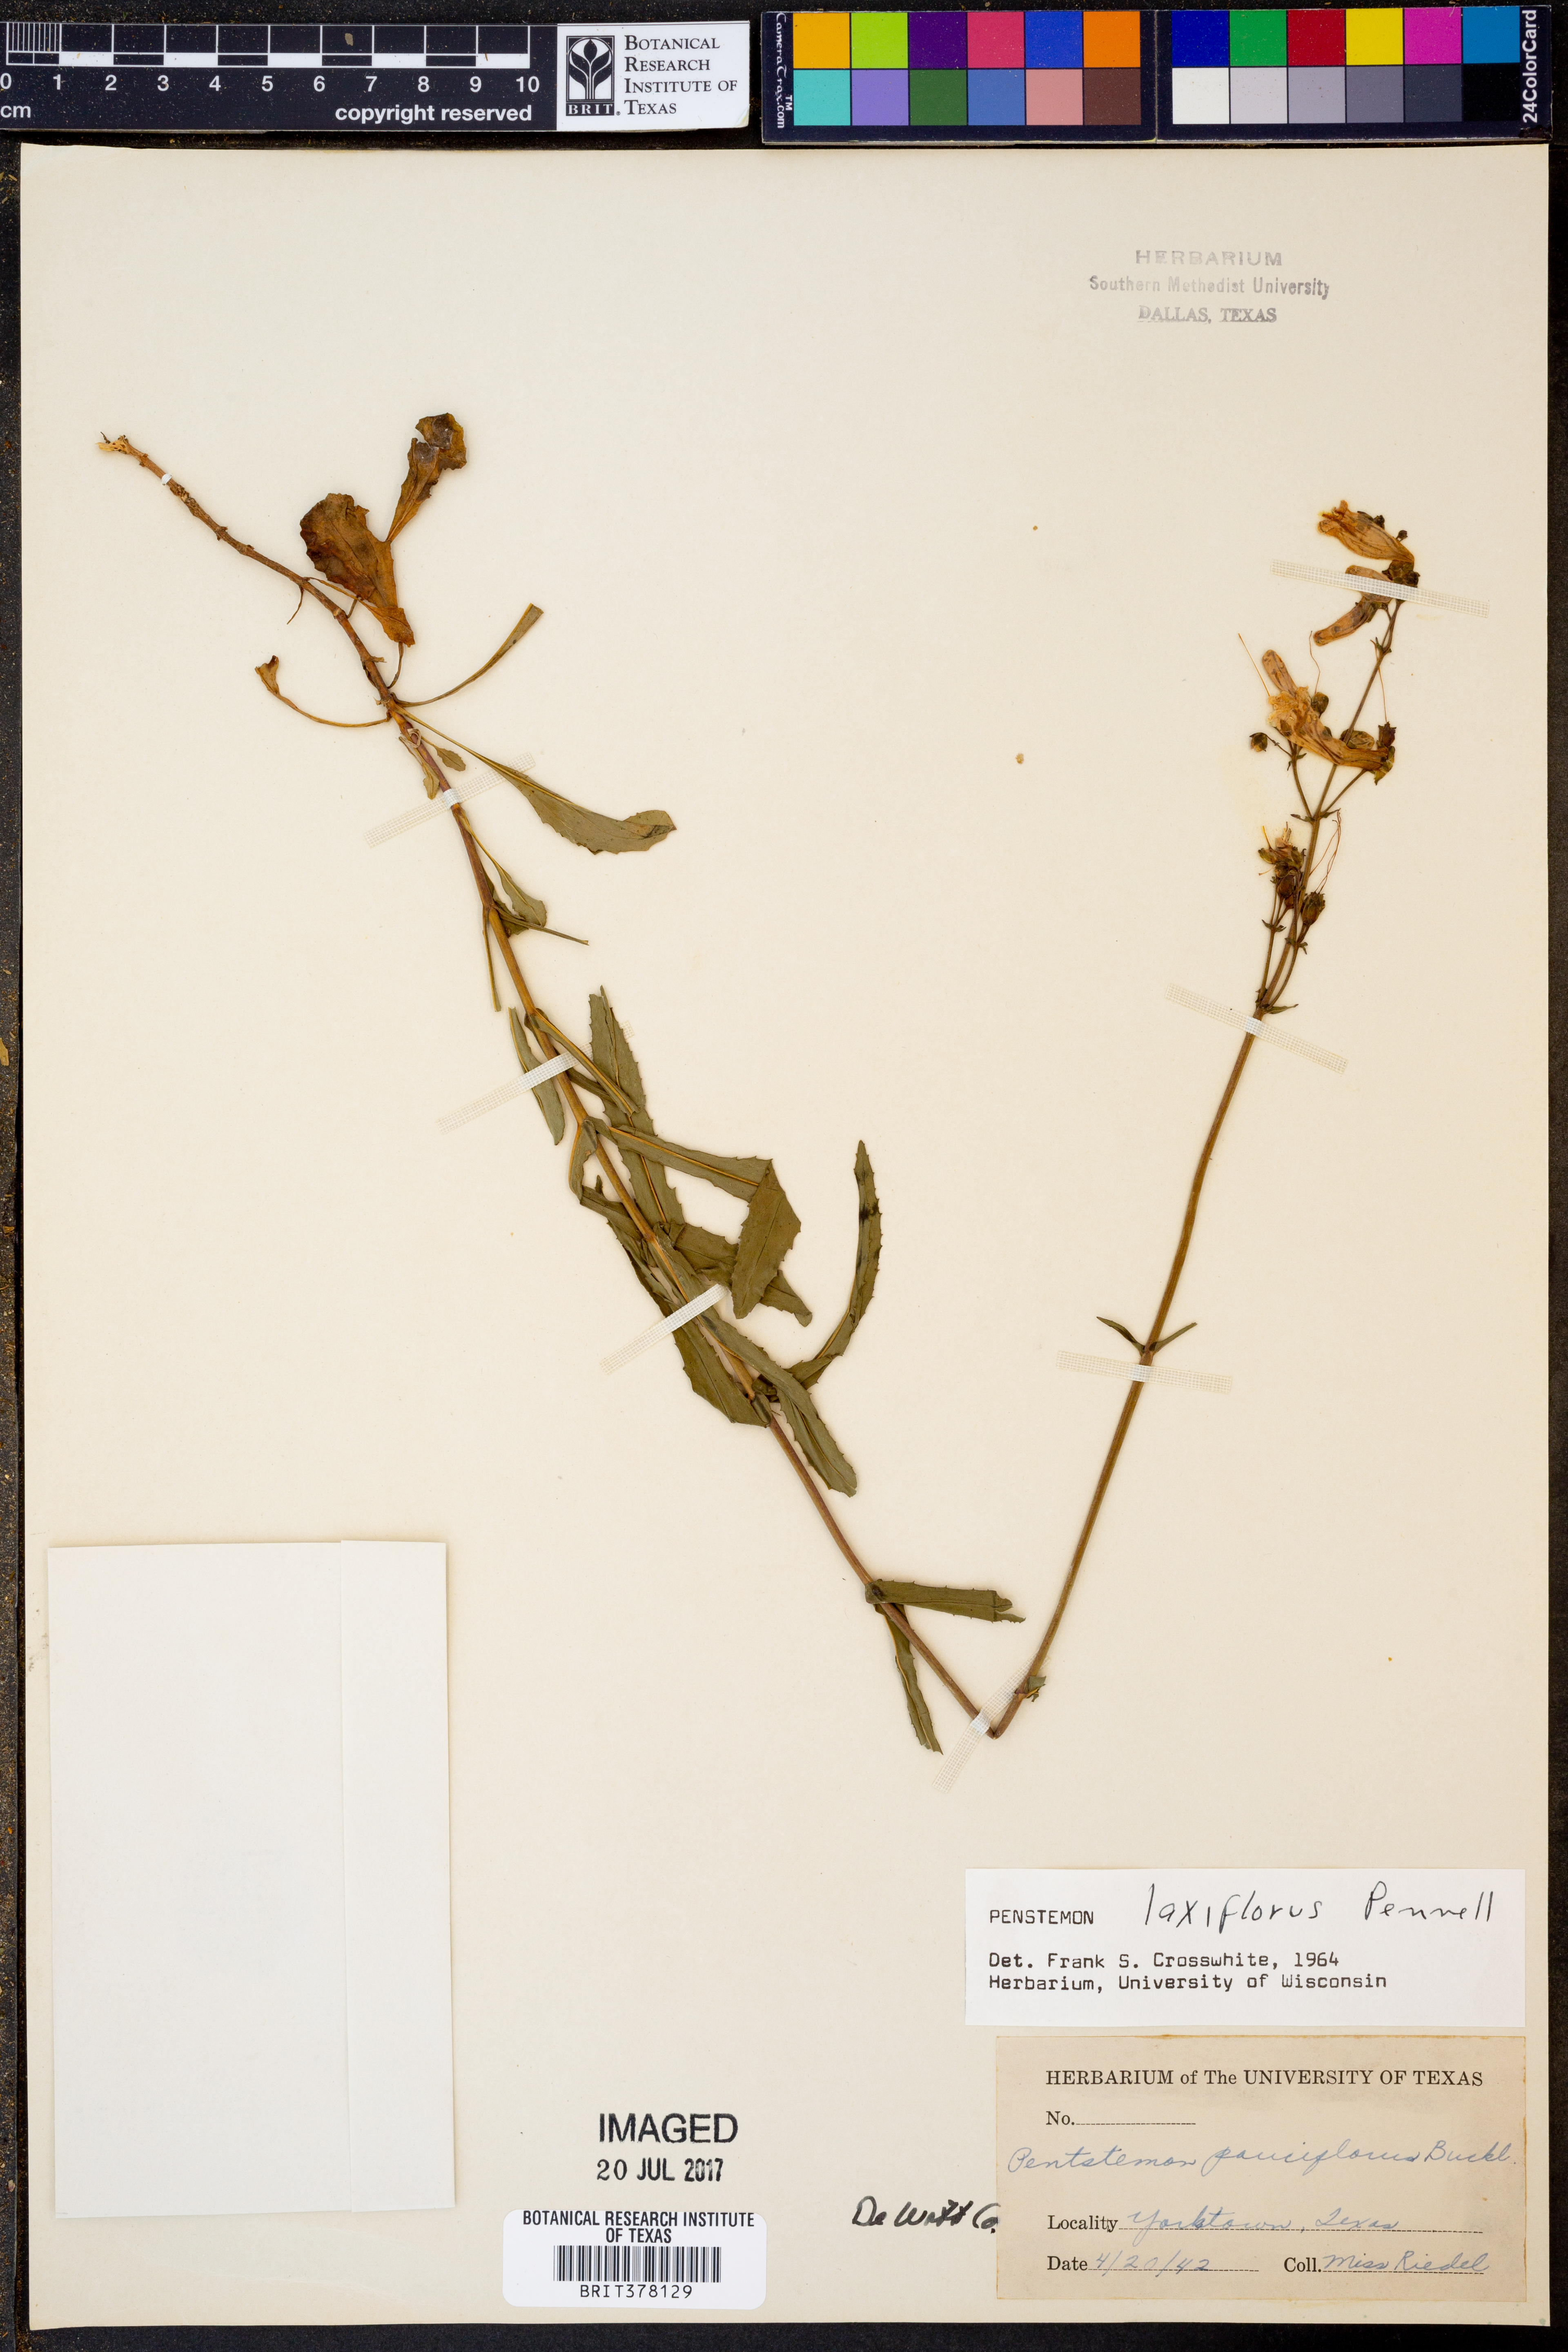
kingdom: Plantae
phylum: Tracheophyta
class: Magnoliopsida
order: Lamiales
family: Plantaginaceae
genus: Penstemon
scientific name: Penstemon laxiflorus
